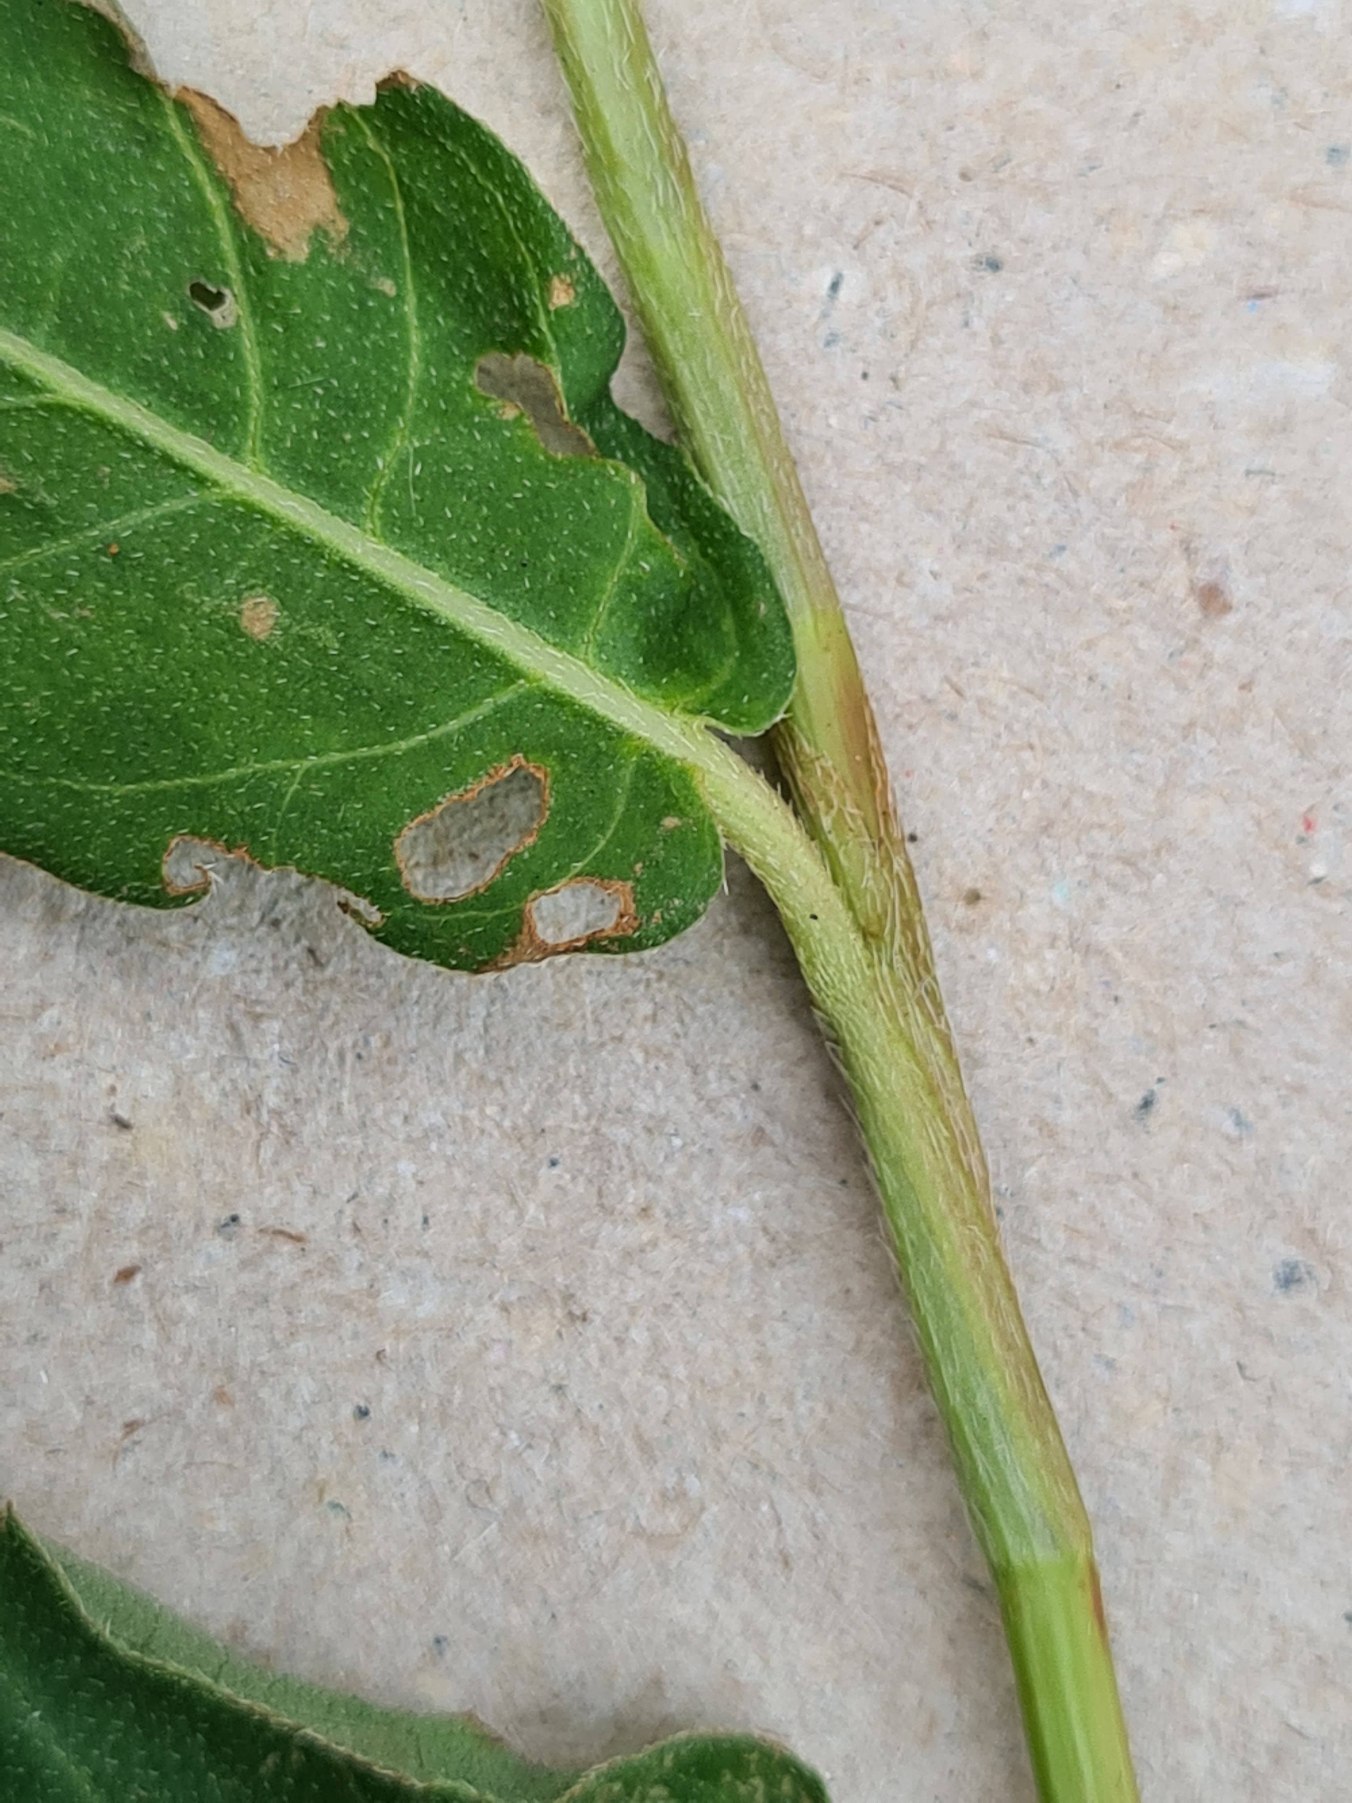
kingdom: Plantae
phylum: Tracheophyta
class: Magnoliopsida
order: Caryophyllales
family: Polygonaceae
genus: Persicaria
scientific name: Persicaria amphibia
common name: Vand-pileurt
